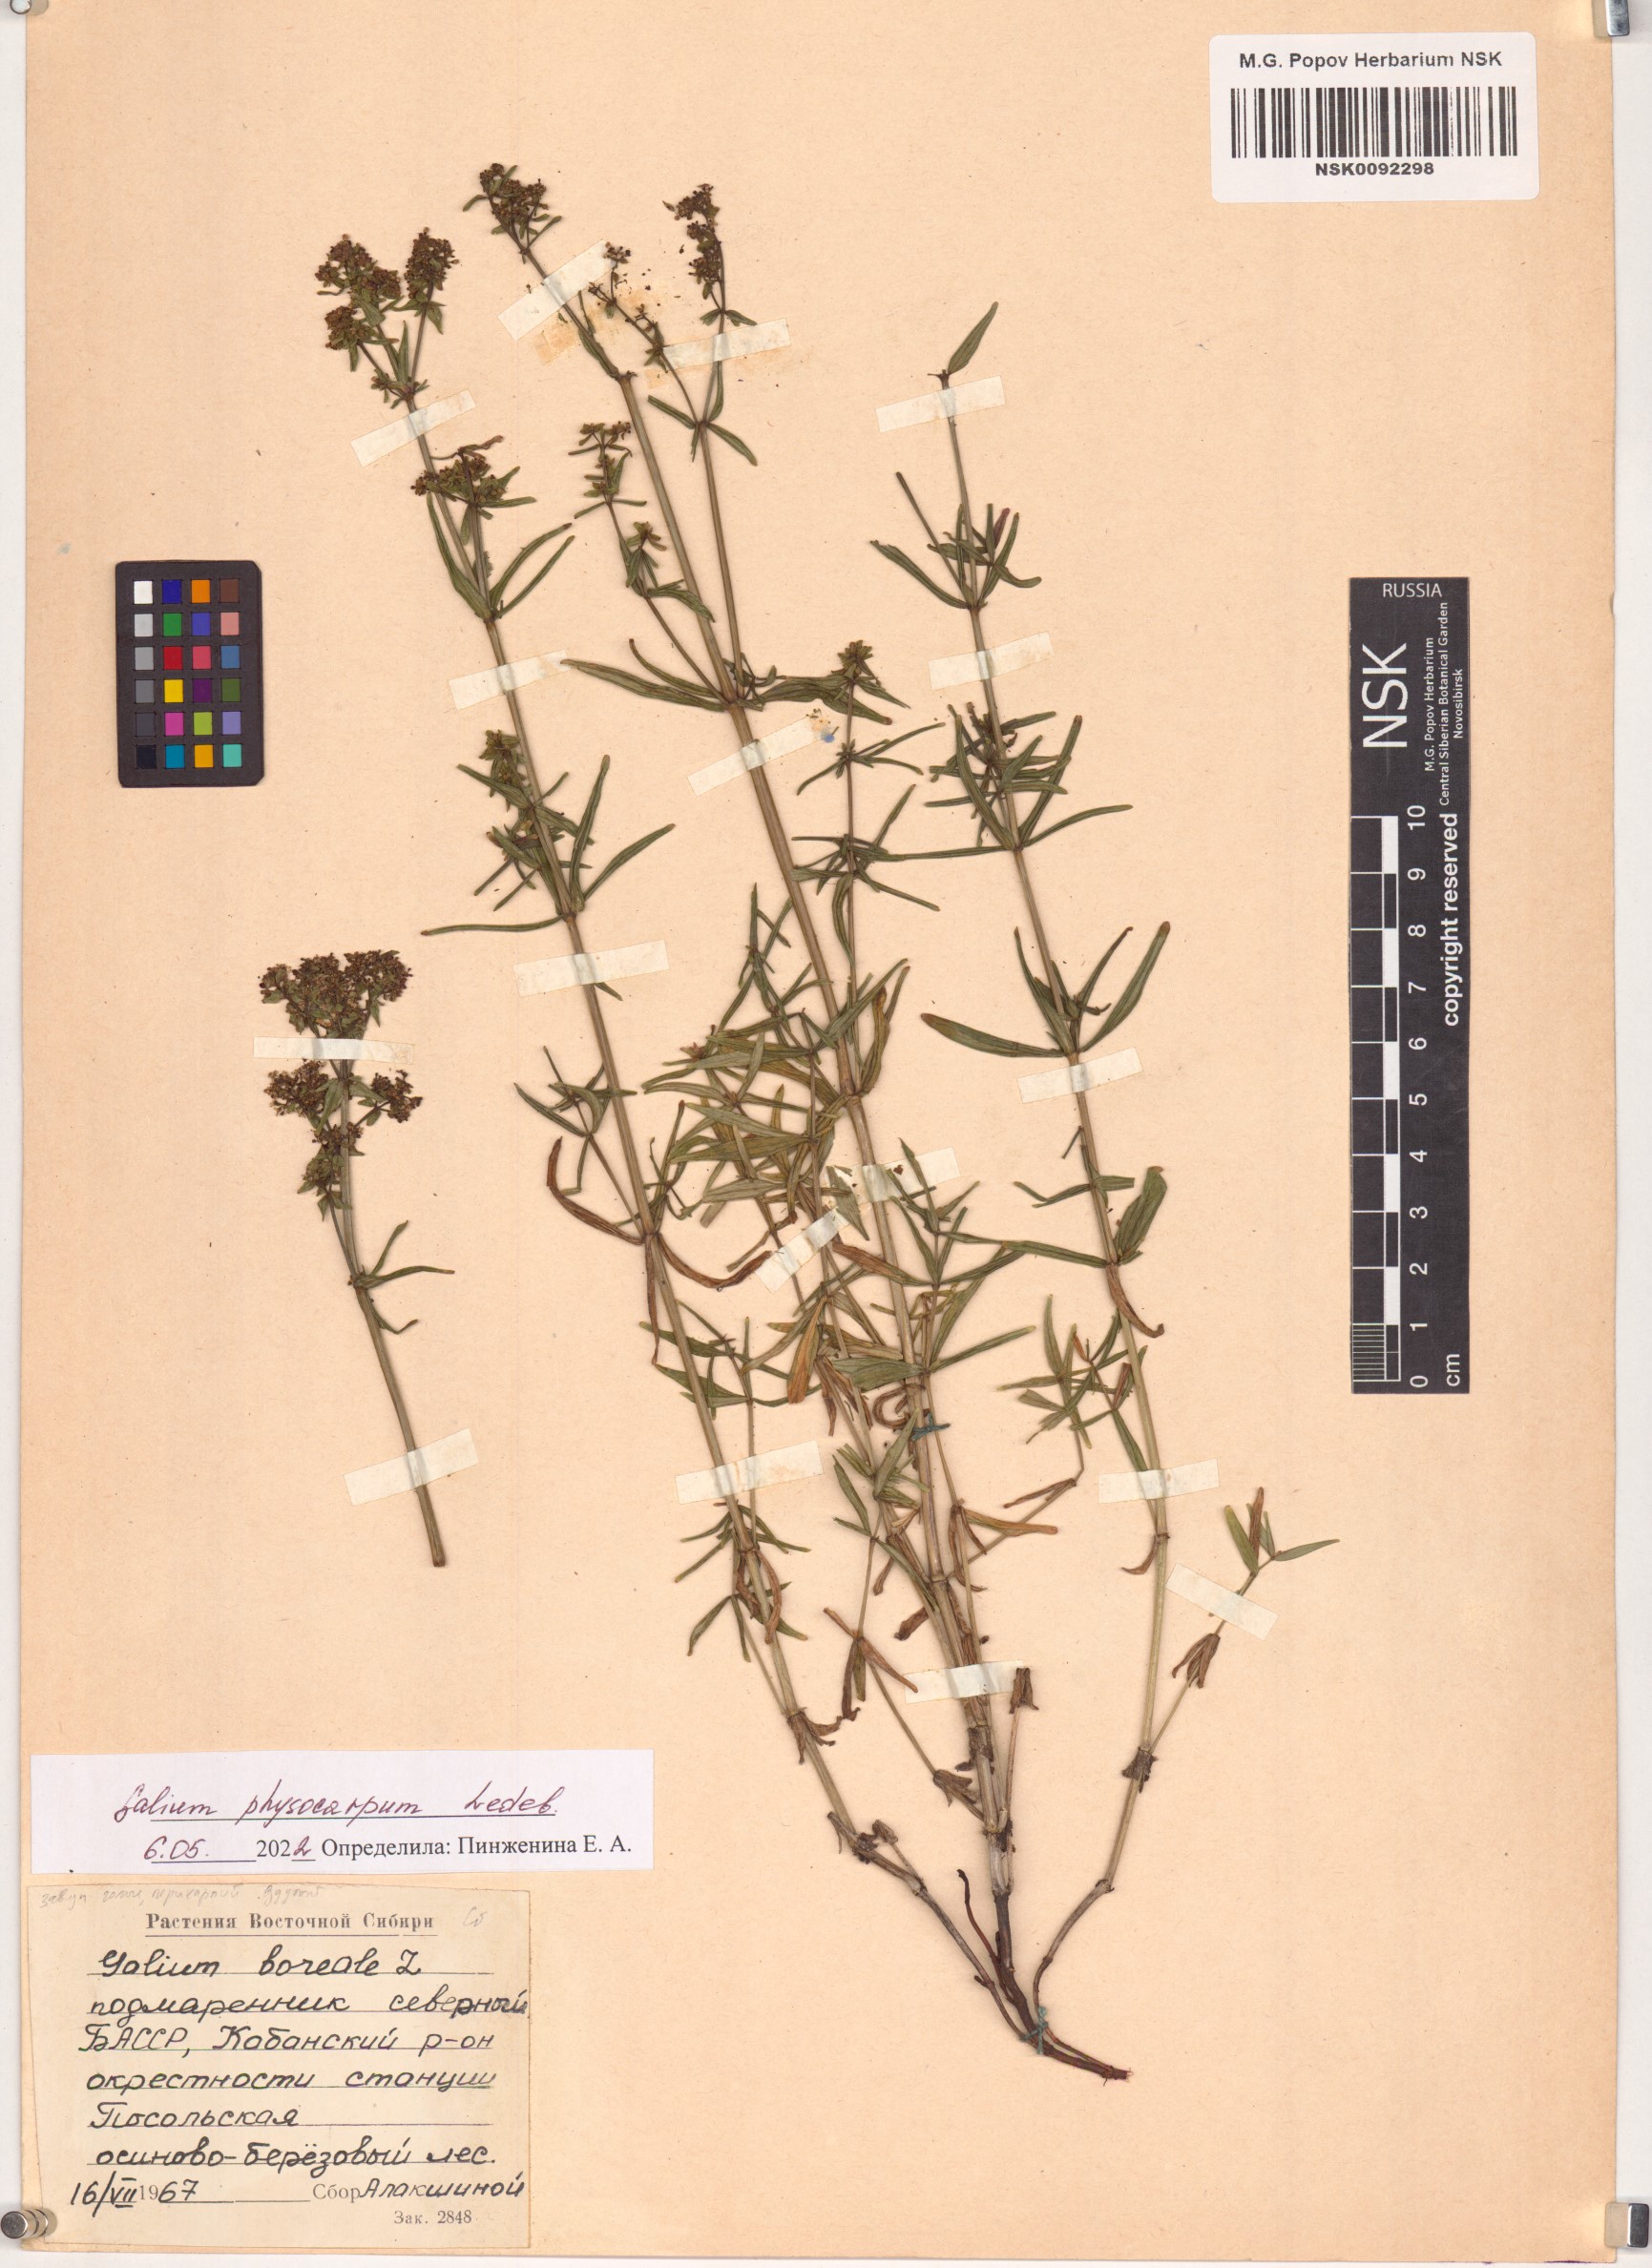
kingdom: Plantae
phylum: Tracheophyta
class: Magnoliopsida
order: Gentianales
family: Rubiaceae
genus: Galium
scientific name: Galium rubioides
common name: European bedstraw
